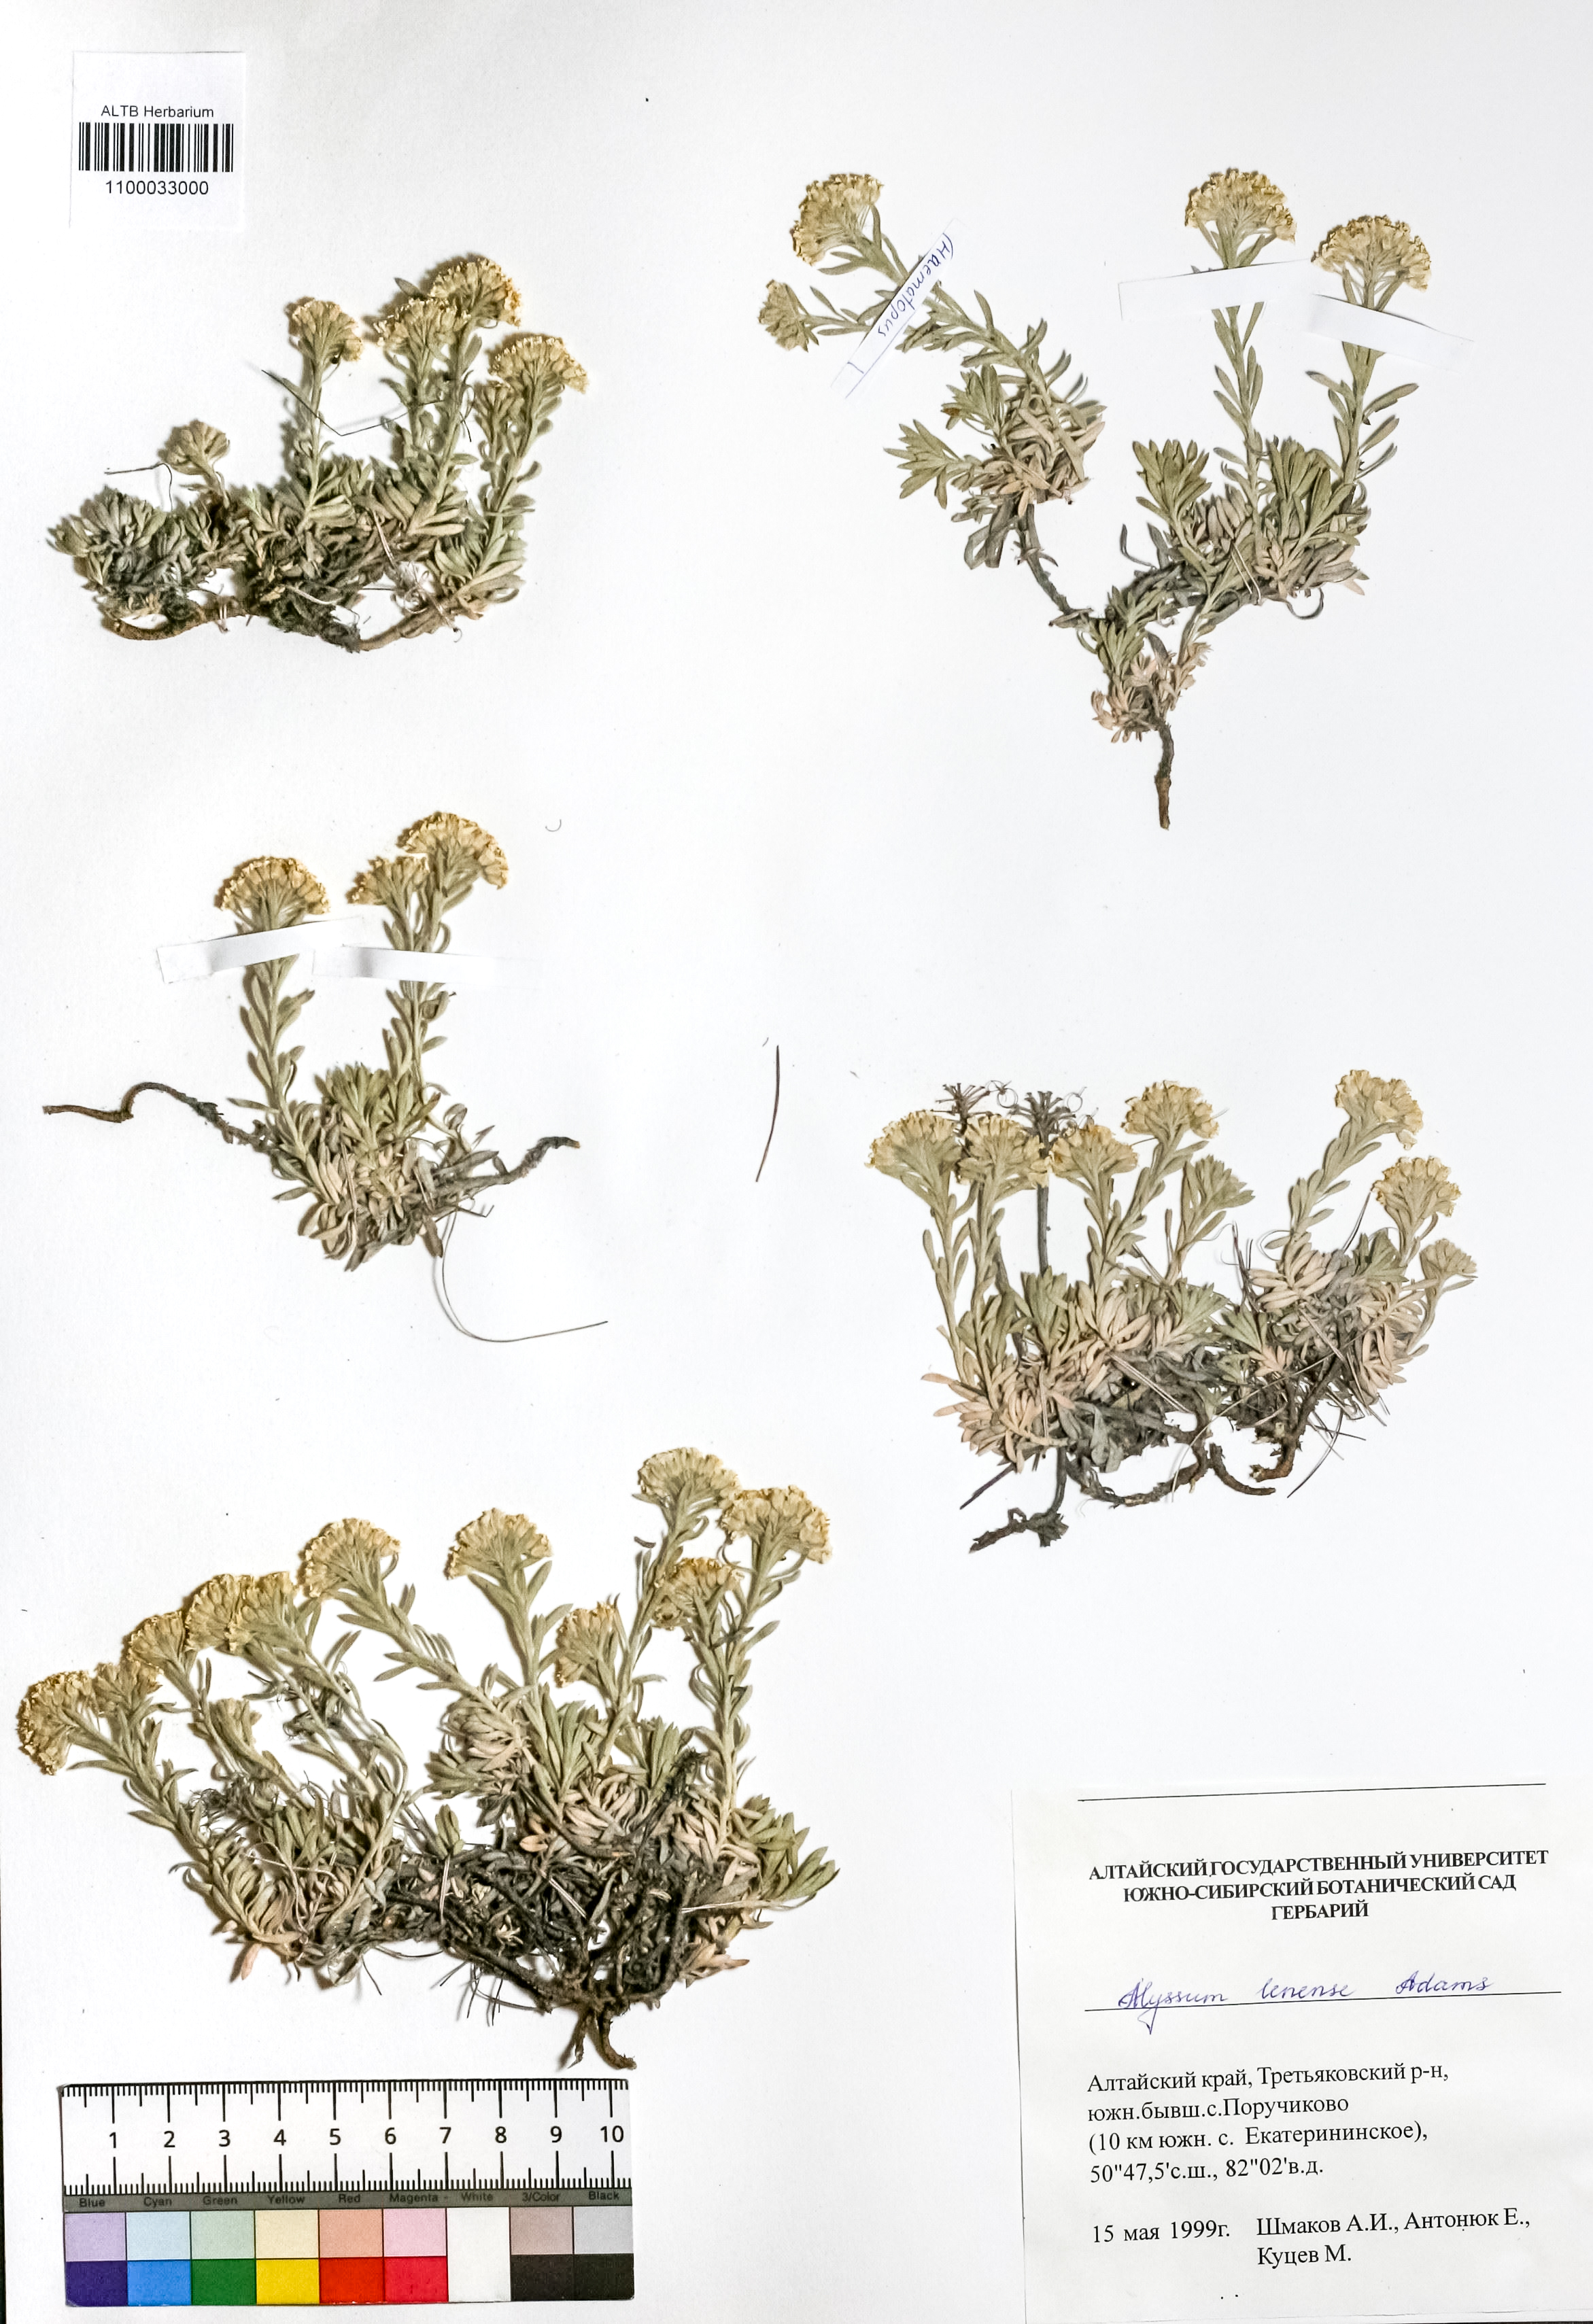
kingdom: Plantae
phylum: Tracheophyta
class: Magnoliopsida
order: Brassicales
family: Brassicaceae
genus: Alyssum
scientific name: Alyssum lenense
